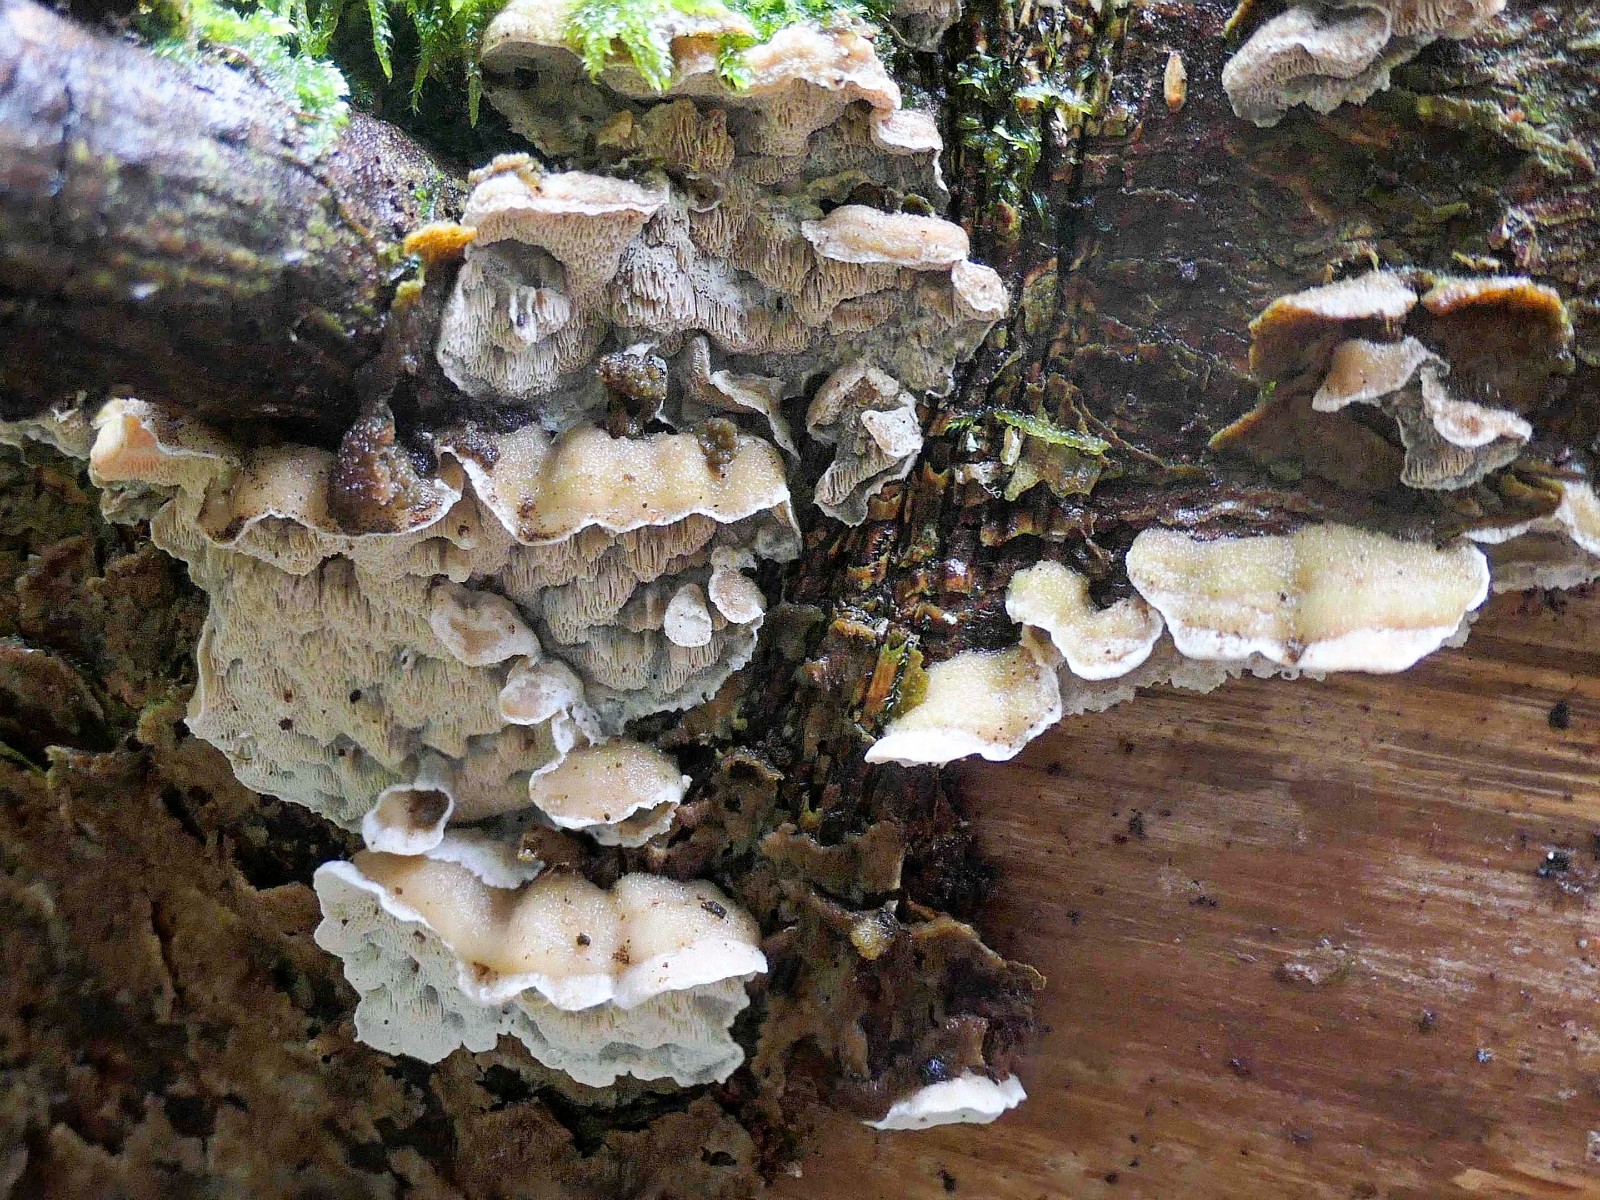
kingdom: Fungi
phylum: Basidiomycota
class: Agaricomycetes
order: Polyporales
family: Incrustoporiaceae
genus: Skeletocutis
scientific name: Skeletocutis amorpha
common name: orange krystalporesvamp
